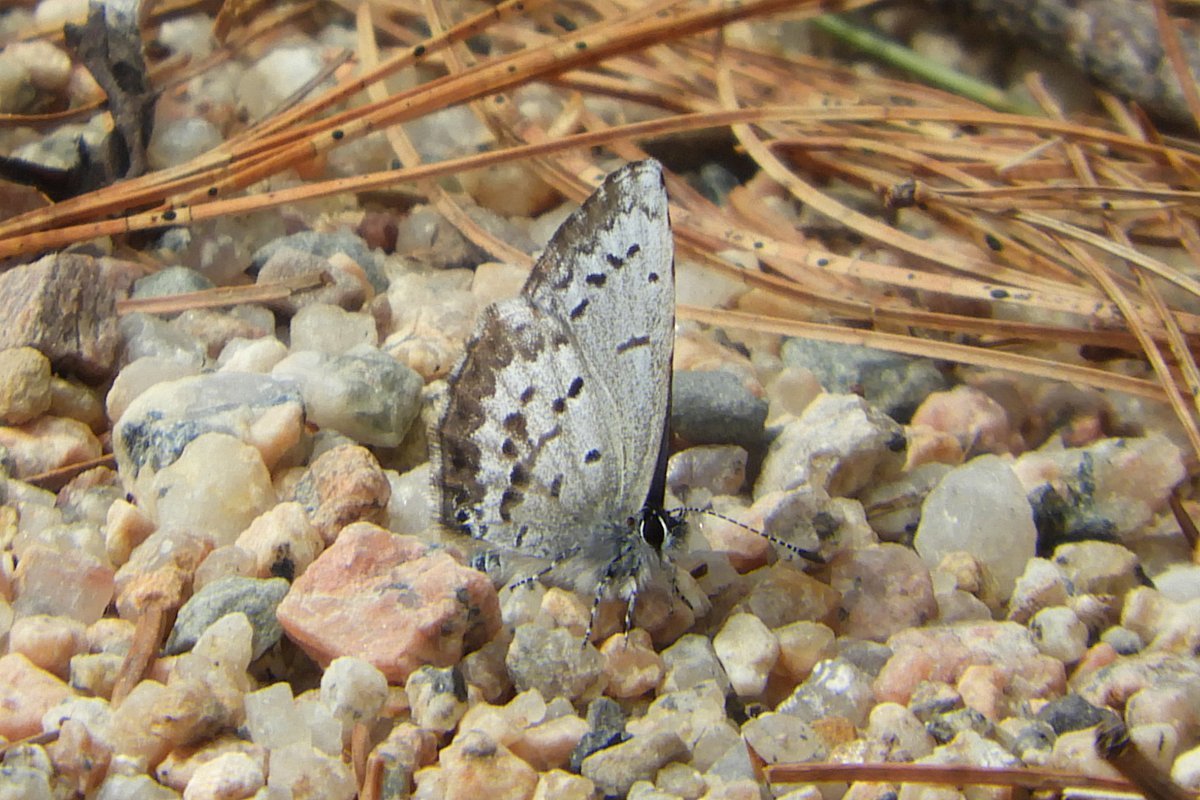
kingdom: Animalia
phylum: Arthropoda
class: Insecta
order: Lepidoptera
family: Lycaenidae
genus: Celastrina
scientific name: Celastrina lucia
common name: Northern Spring Azure
